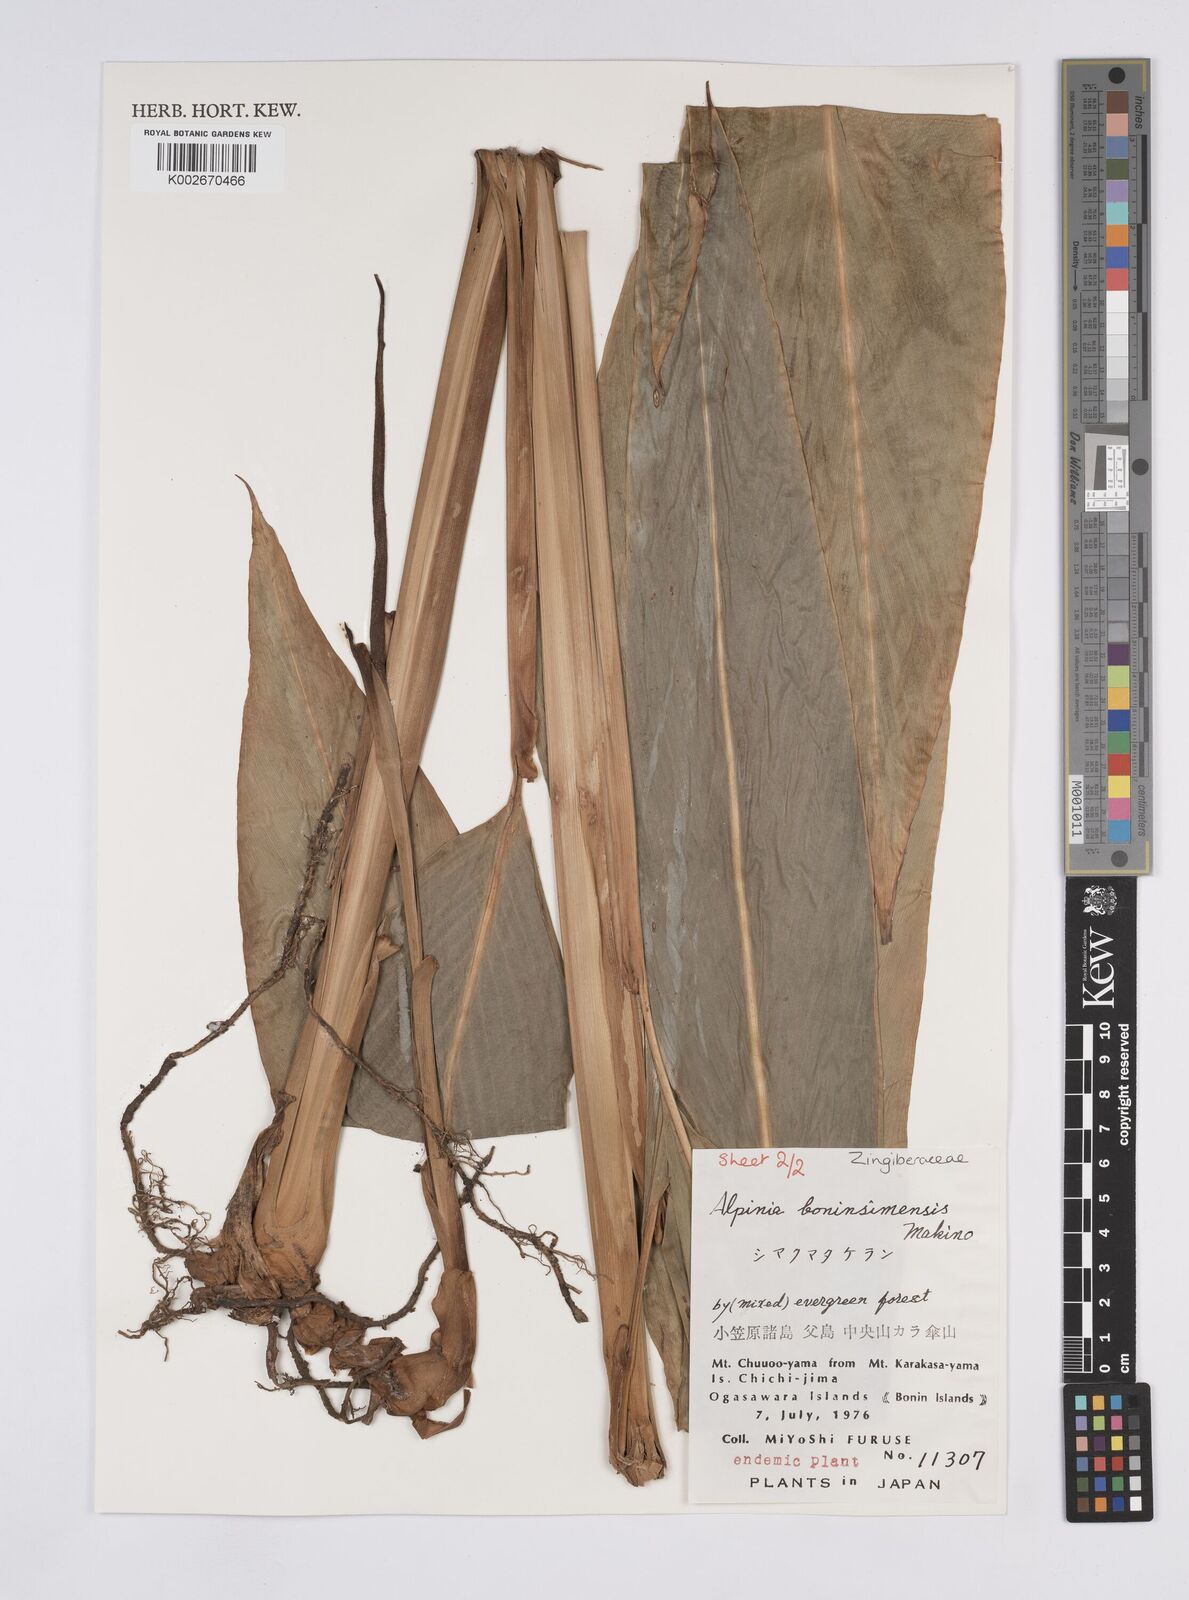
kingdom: Plantae
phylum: Tracheophyta
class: Liliopsida
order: Zingiberales
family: Zingiberaceae
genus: Alpinia
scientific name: Alpinia boninsimensis
